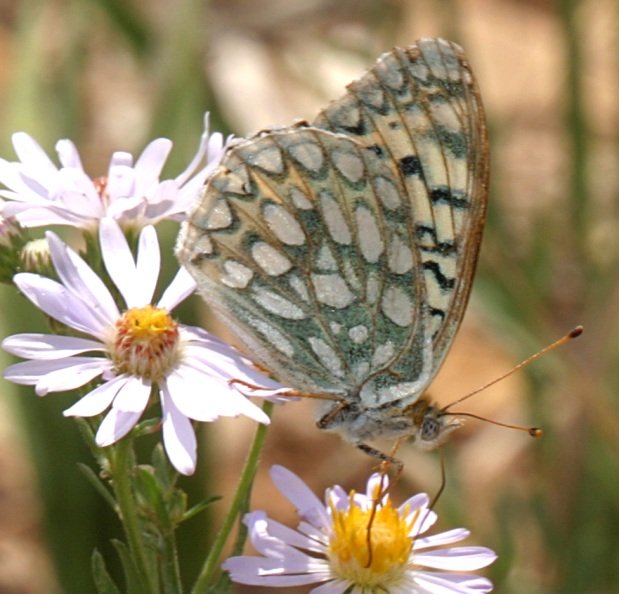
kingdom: Animalia
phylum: Arthropoda
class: Insecta
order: Lepidoptera
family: Nymphalidae
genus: Speyeria
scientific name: Speyeria callippe
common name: Callippe Fritillary
